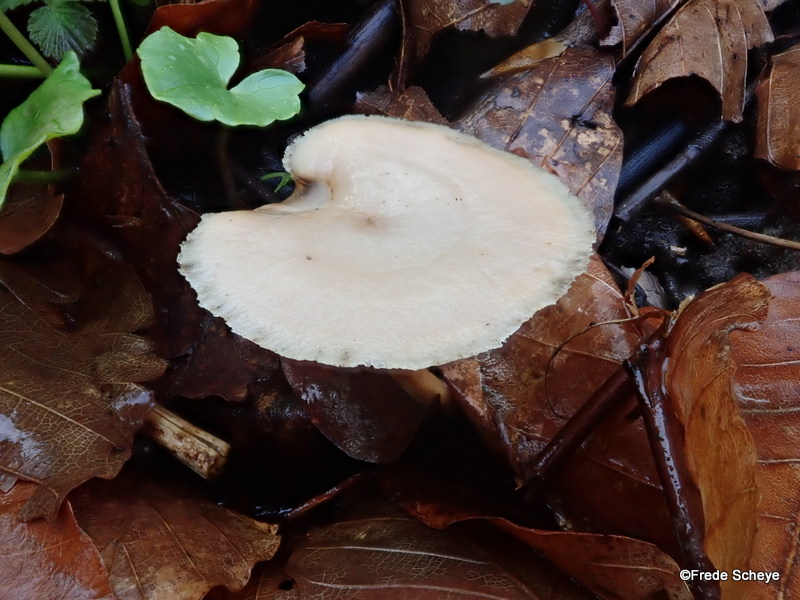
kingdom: Fungi
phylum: Basidiomycota
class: Agaricomycetes
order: Polyporales
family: Polyporaceae
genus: Lentinus
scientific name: Lentinus brumalis
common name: vinter-stilkporesvamp
